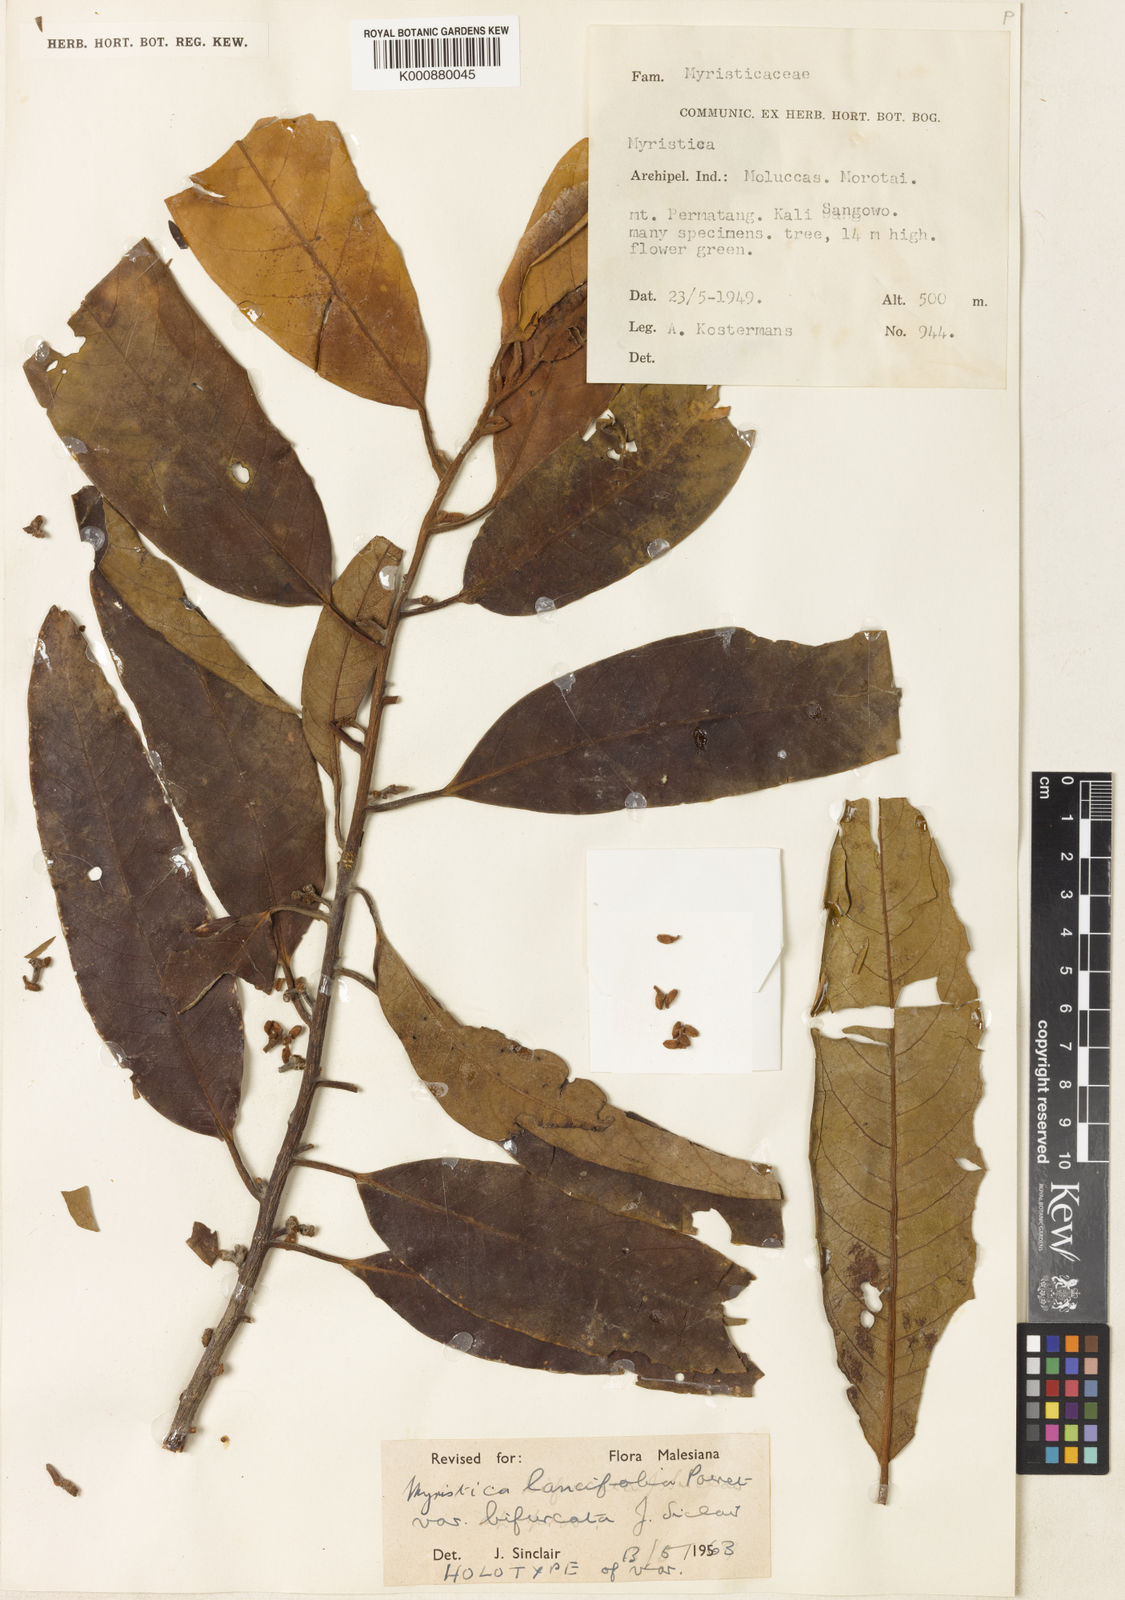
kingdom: Plantae
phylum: Tracheophyta
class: Magnoliopsida
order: Magnoliales
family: Myristicaceae
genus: Myristica
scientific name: Myristica lancifolia
